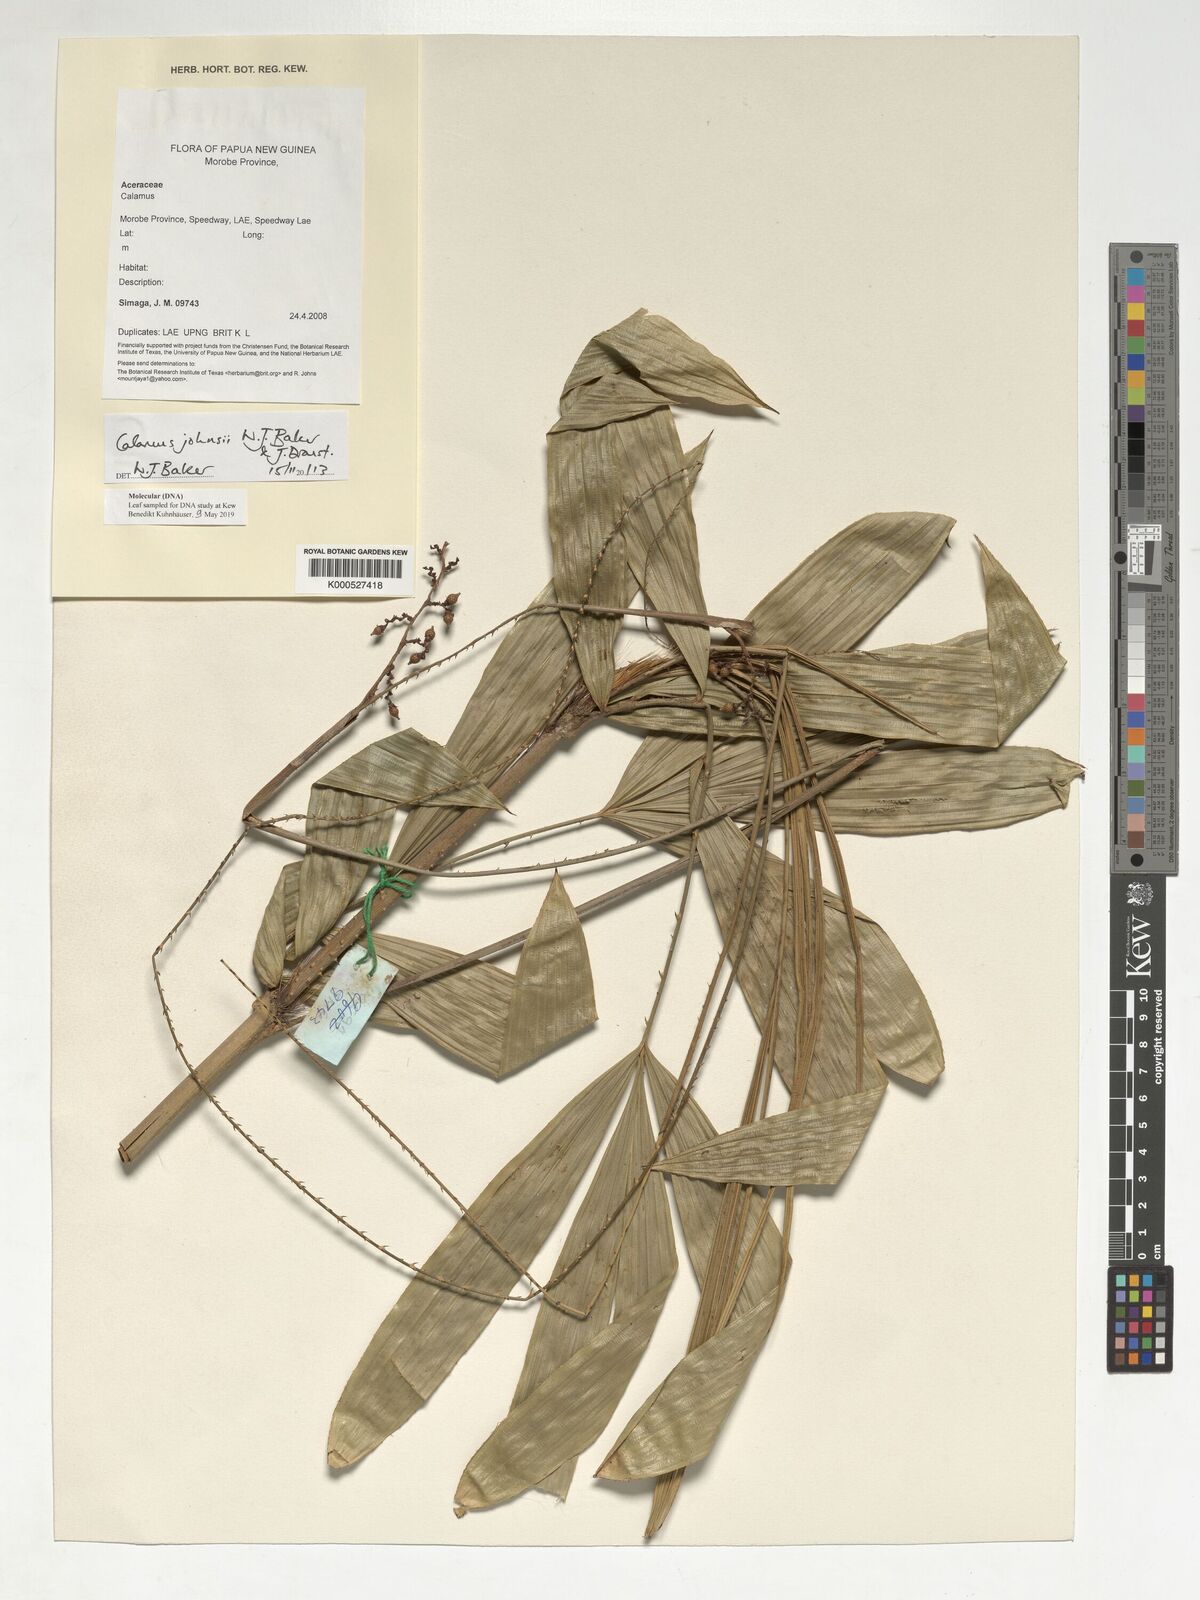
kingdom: Plantae
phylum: Tracheophyta
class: Liliopsida
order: Arecales
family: Arecaceae
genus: Calamus
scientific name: Calamus johnsii
